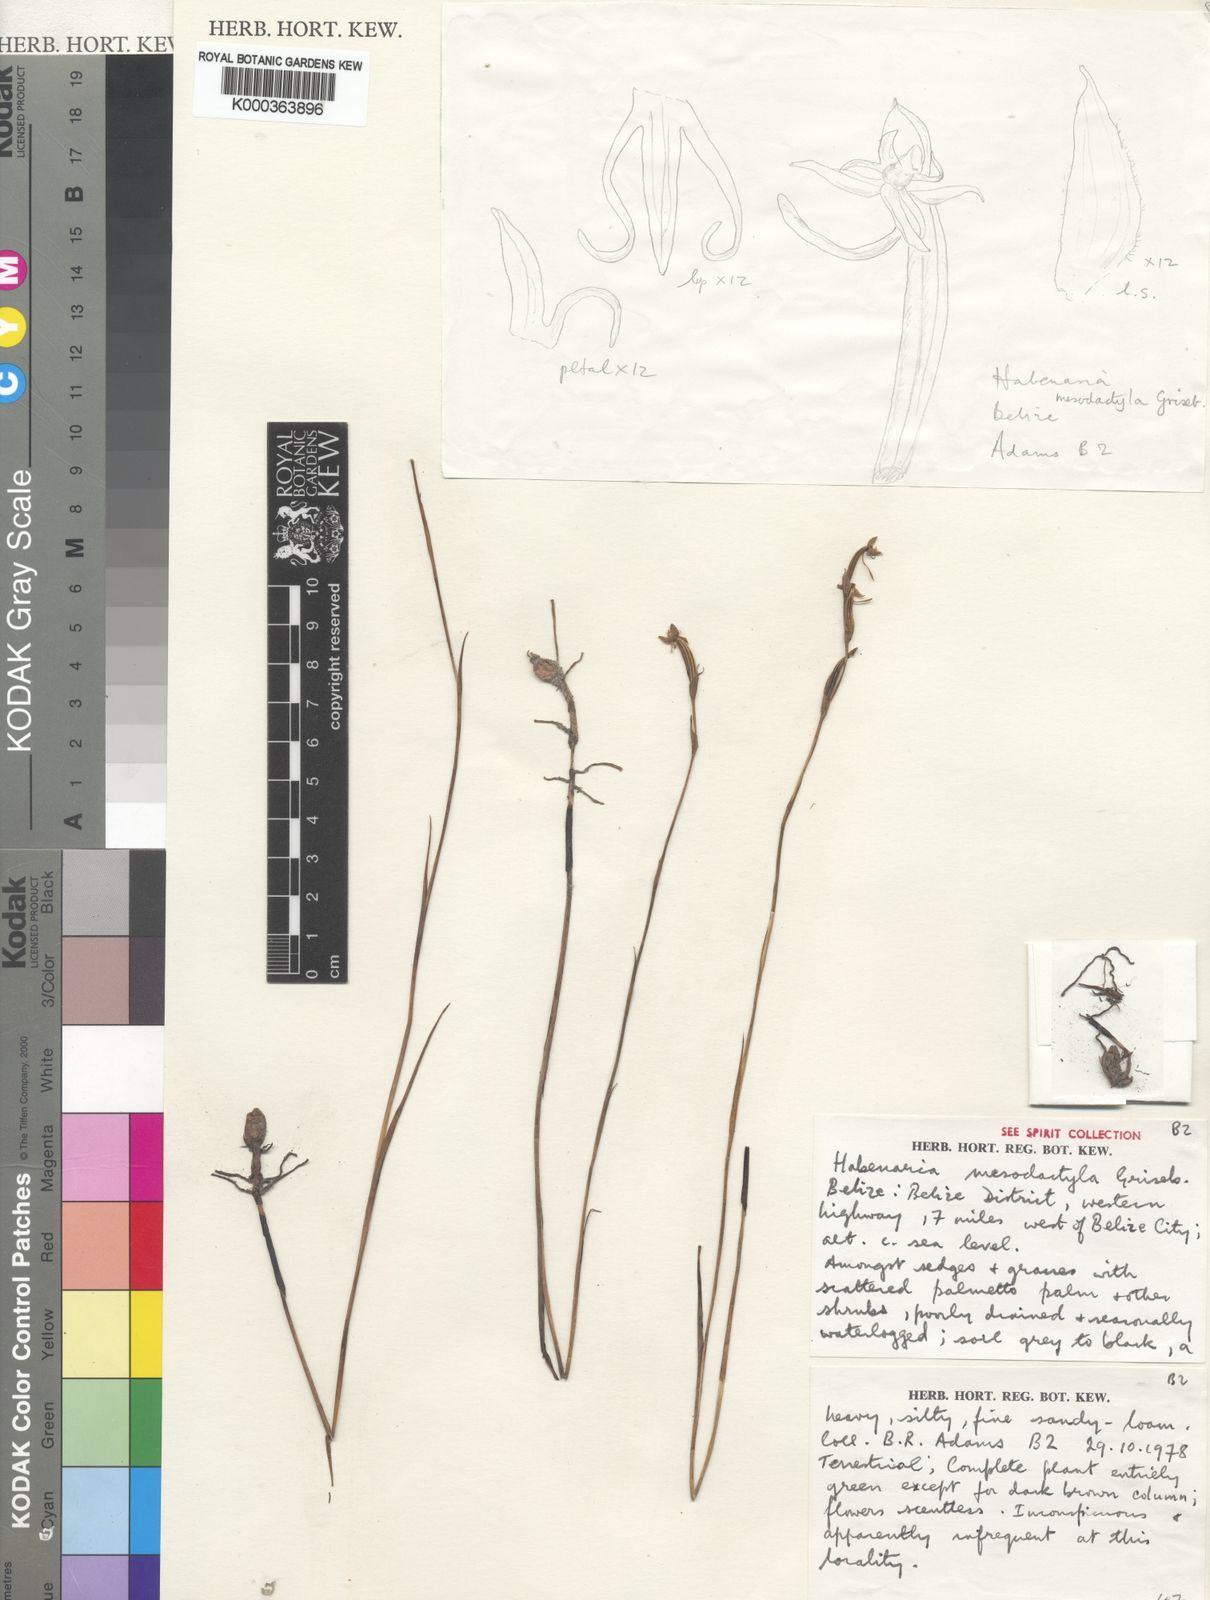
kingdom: Plantae
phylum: Tracheophyta
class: Liliopsida
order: Asparagales
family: Orchidaceae
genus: Habenaria
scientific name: Habenaria mesodactyla
